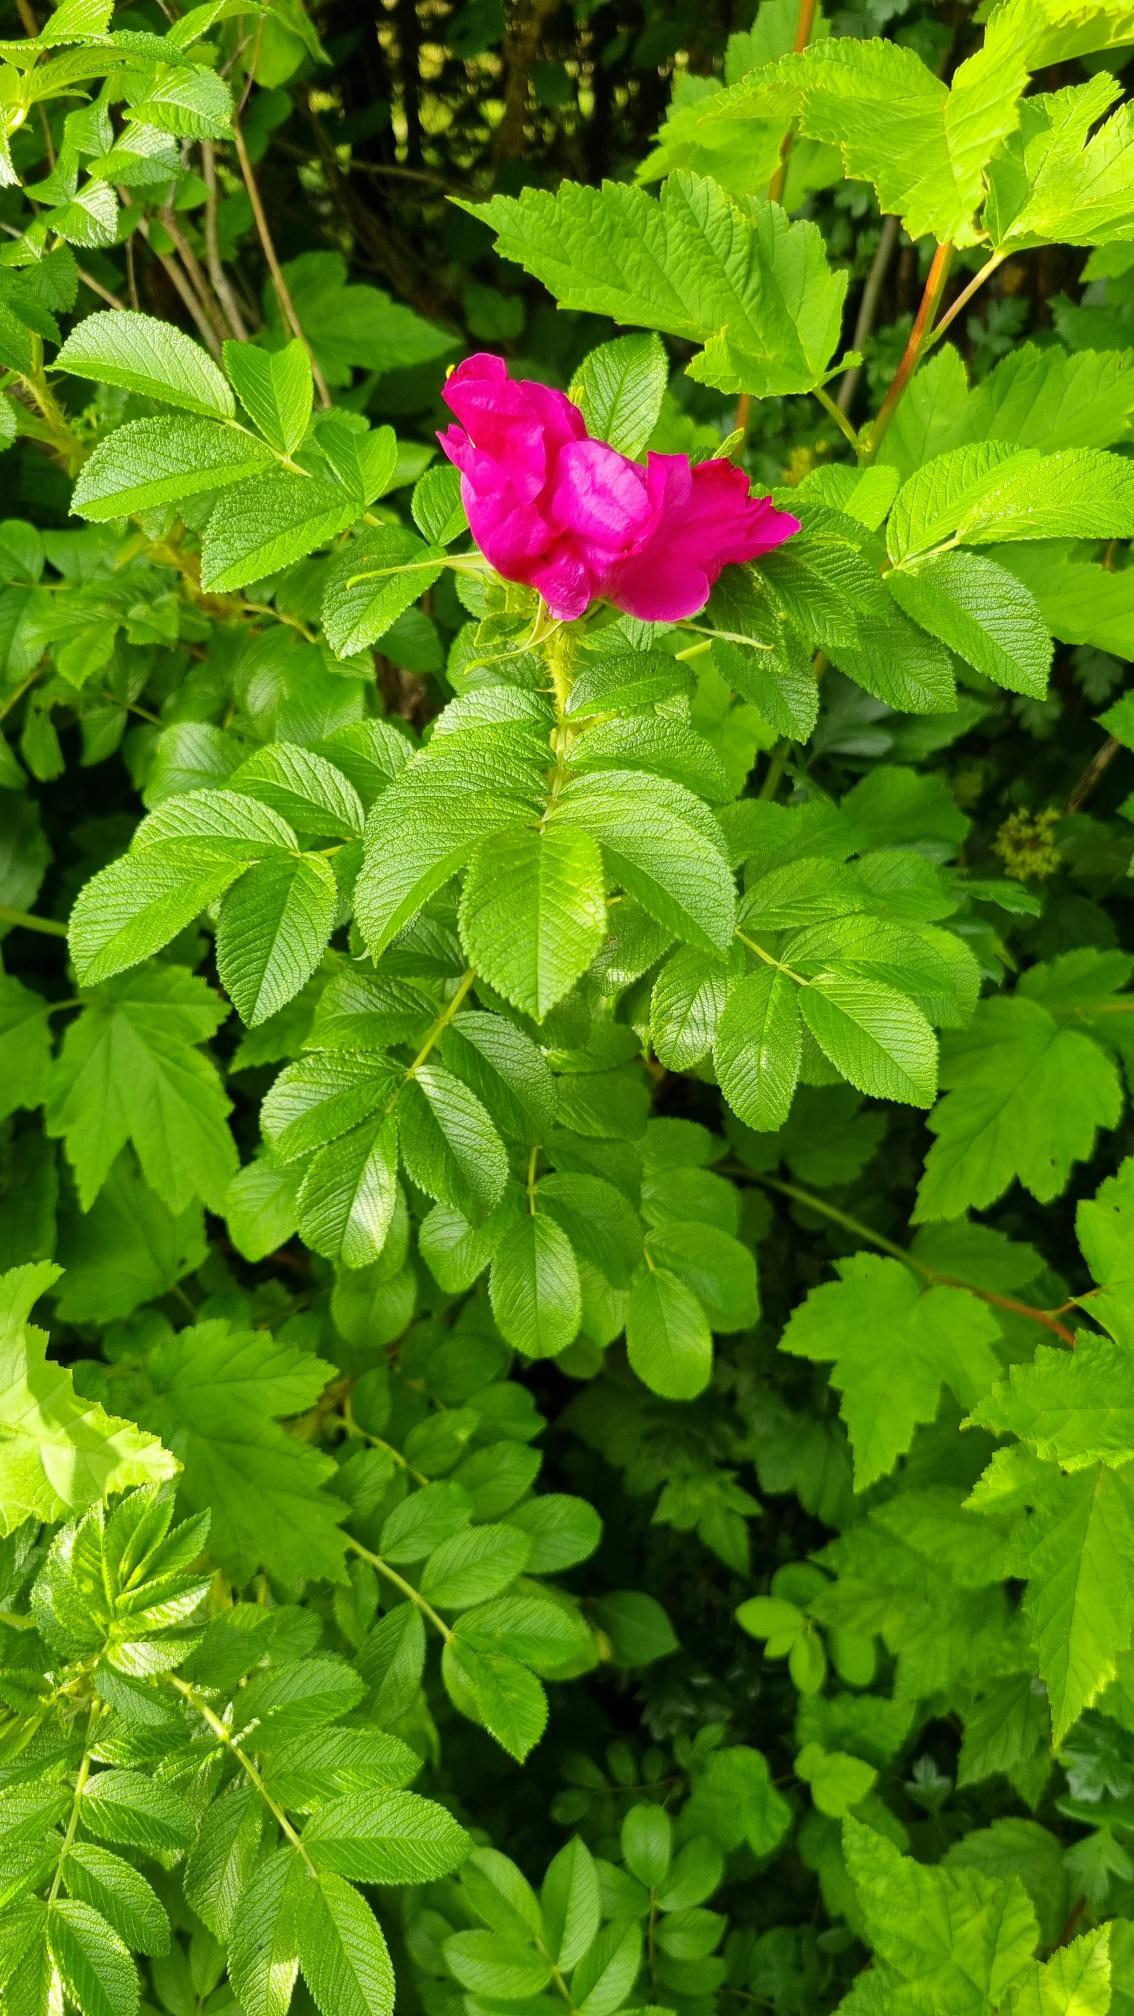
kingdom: Plantae
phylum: Tracheophyta
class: Magnoliopsida
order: Rosales
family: Rosaceae
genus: Rosa
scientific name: Rosa rugosa
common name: Rynket rose
